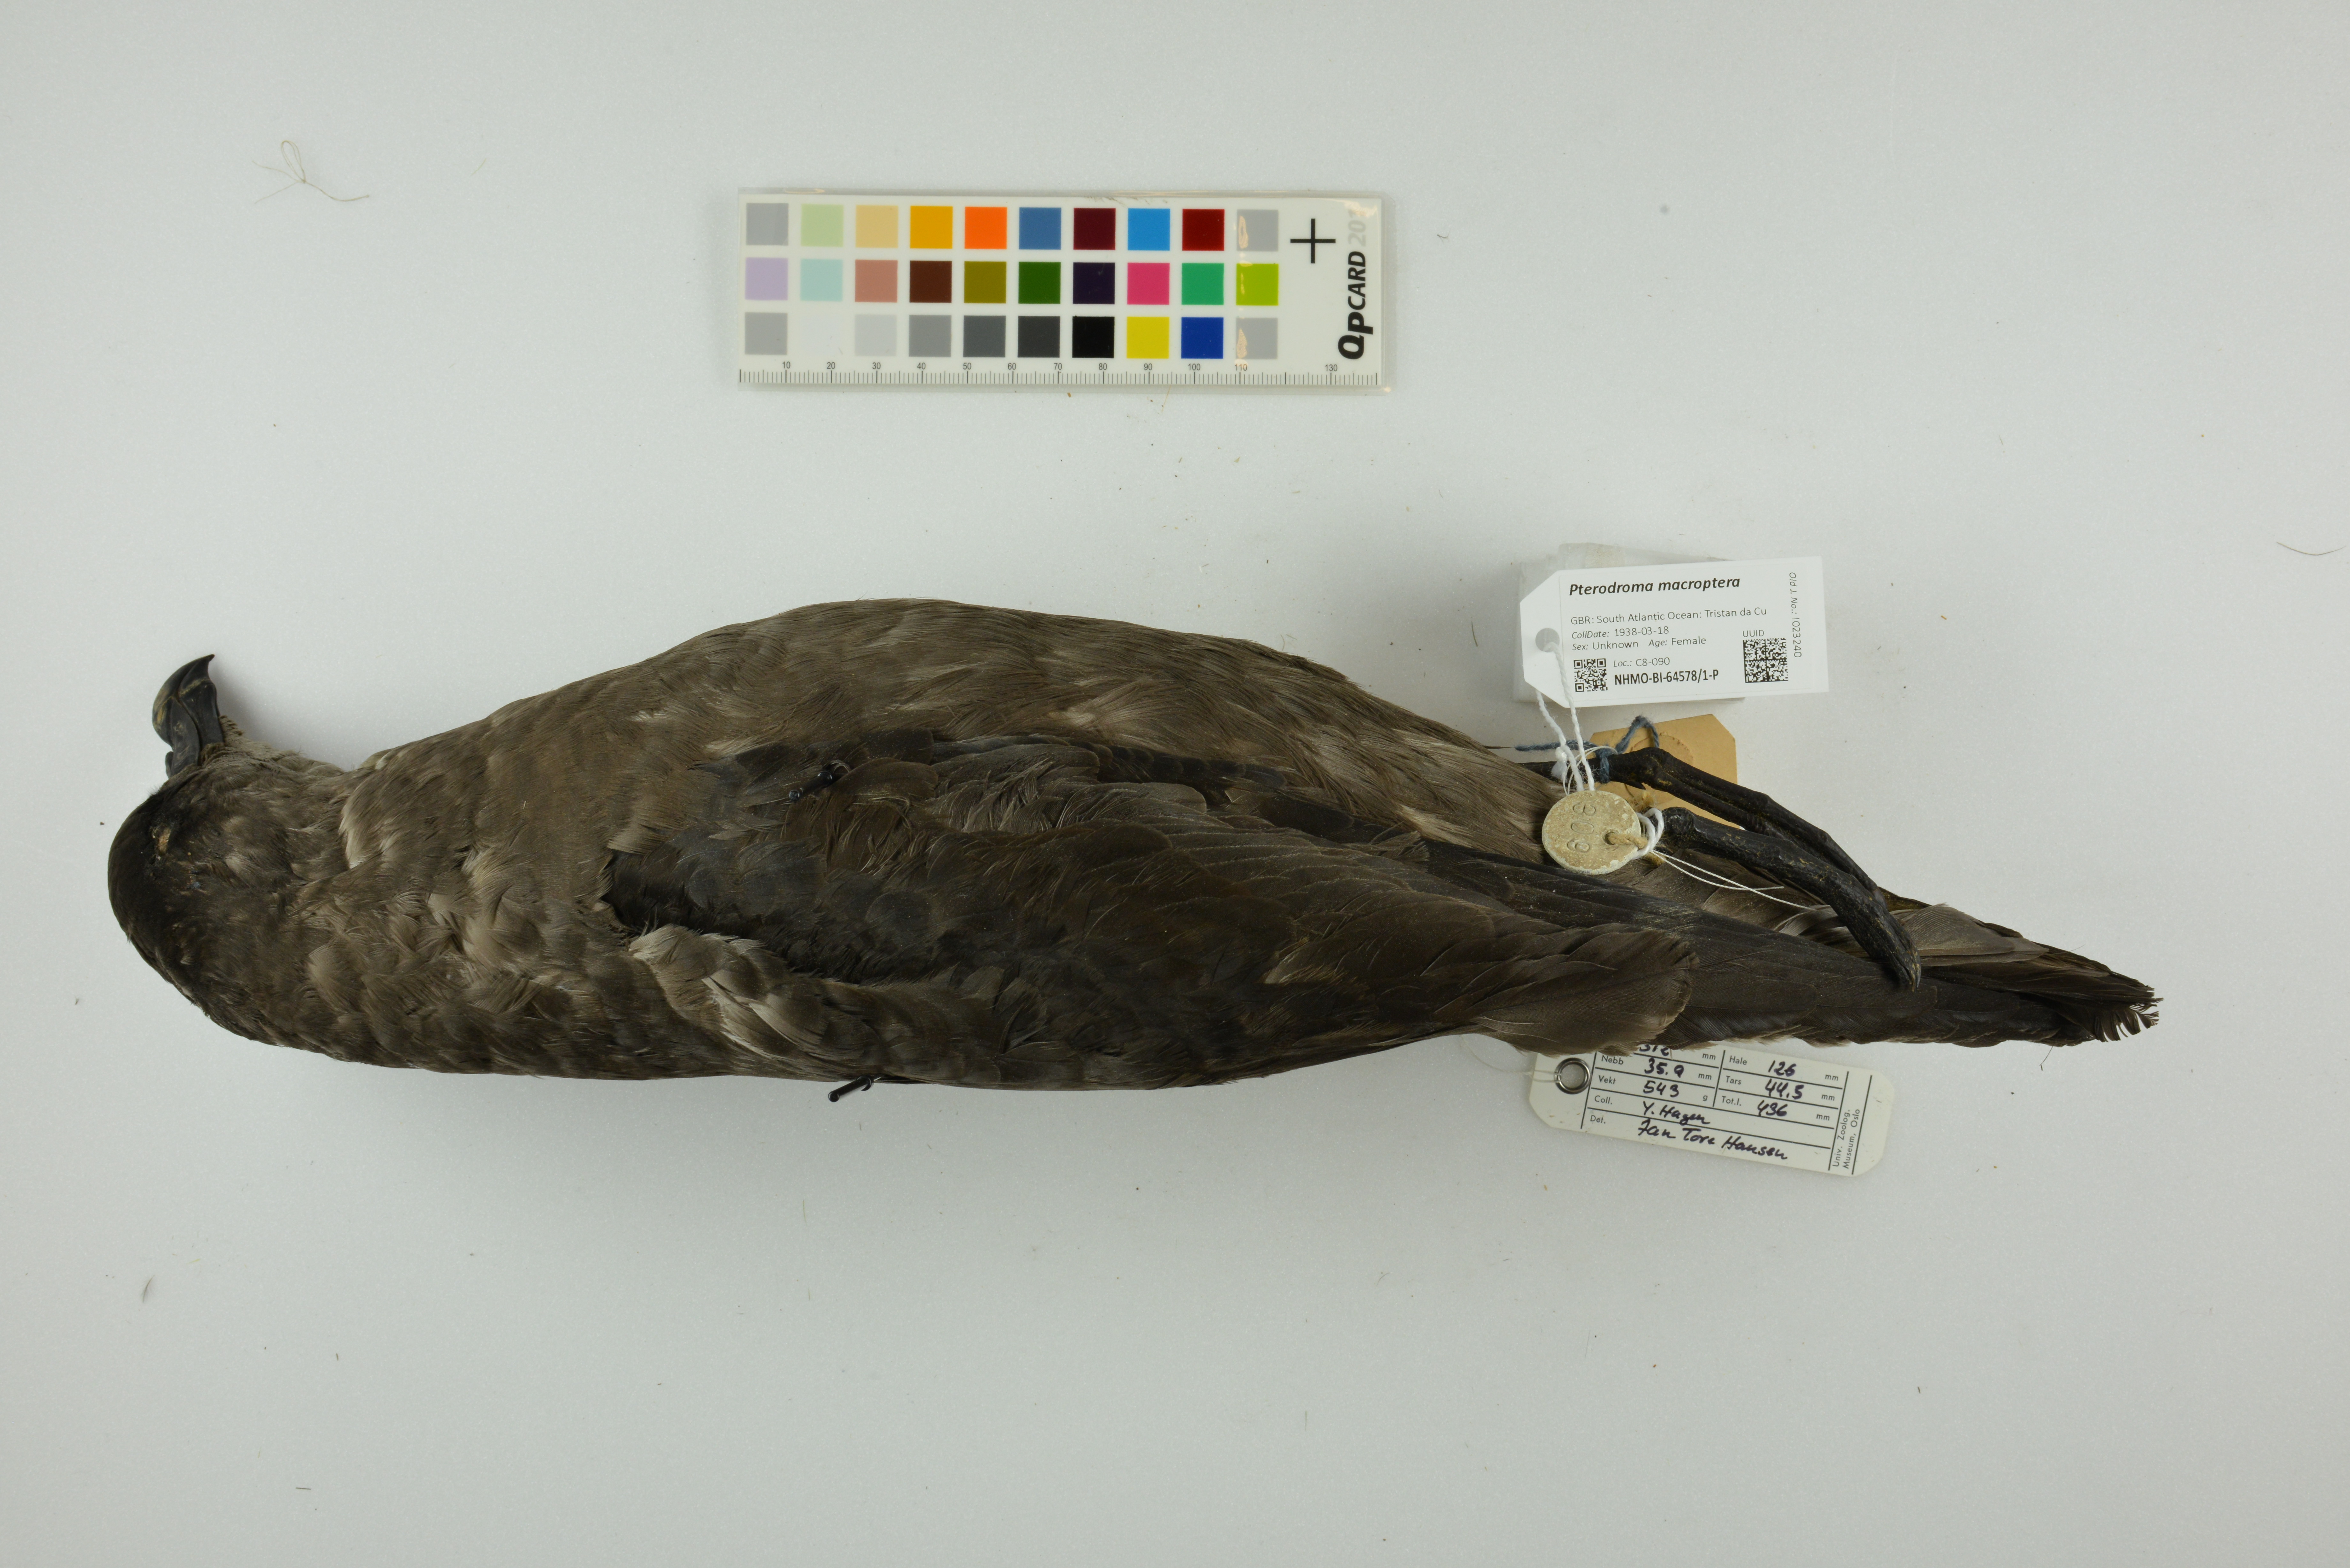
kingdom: Animalia
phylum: Chordata
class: Aves
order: Procellariiformes
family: Procellariidae
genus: Pterodroma
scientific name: Pterodroma macroptera
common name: Great-winged petrel
